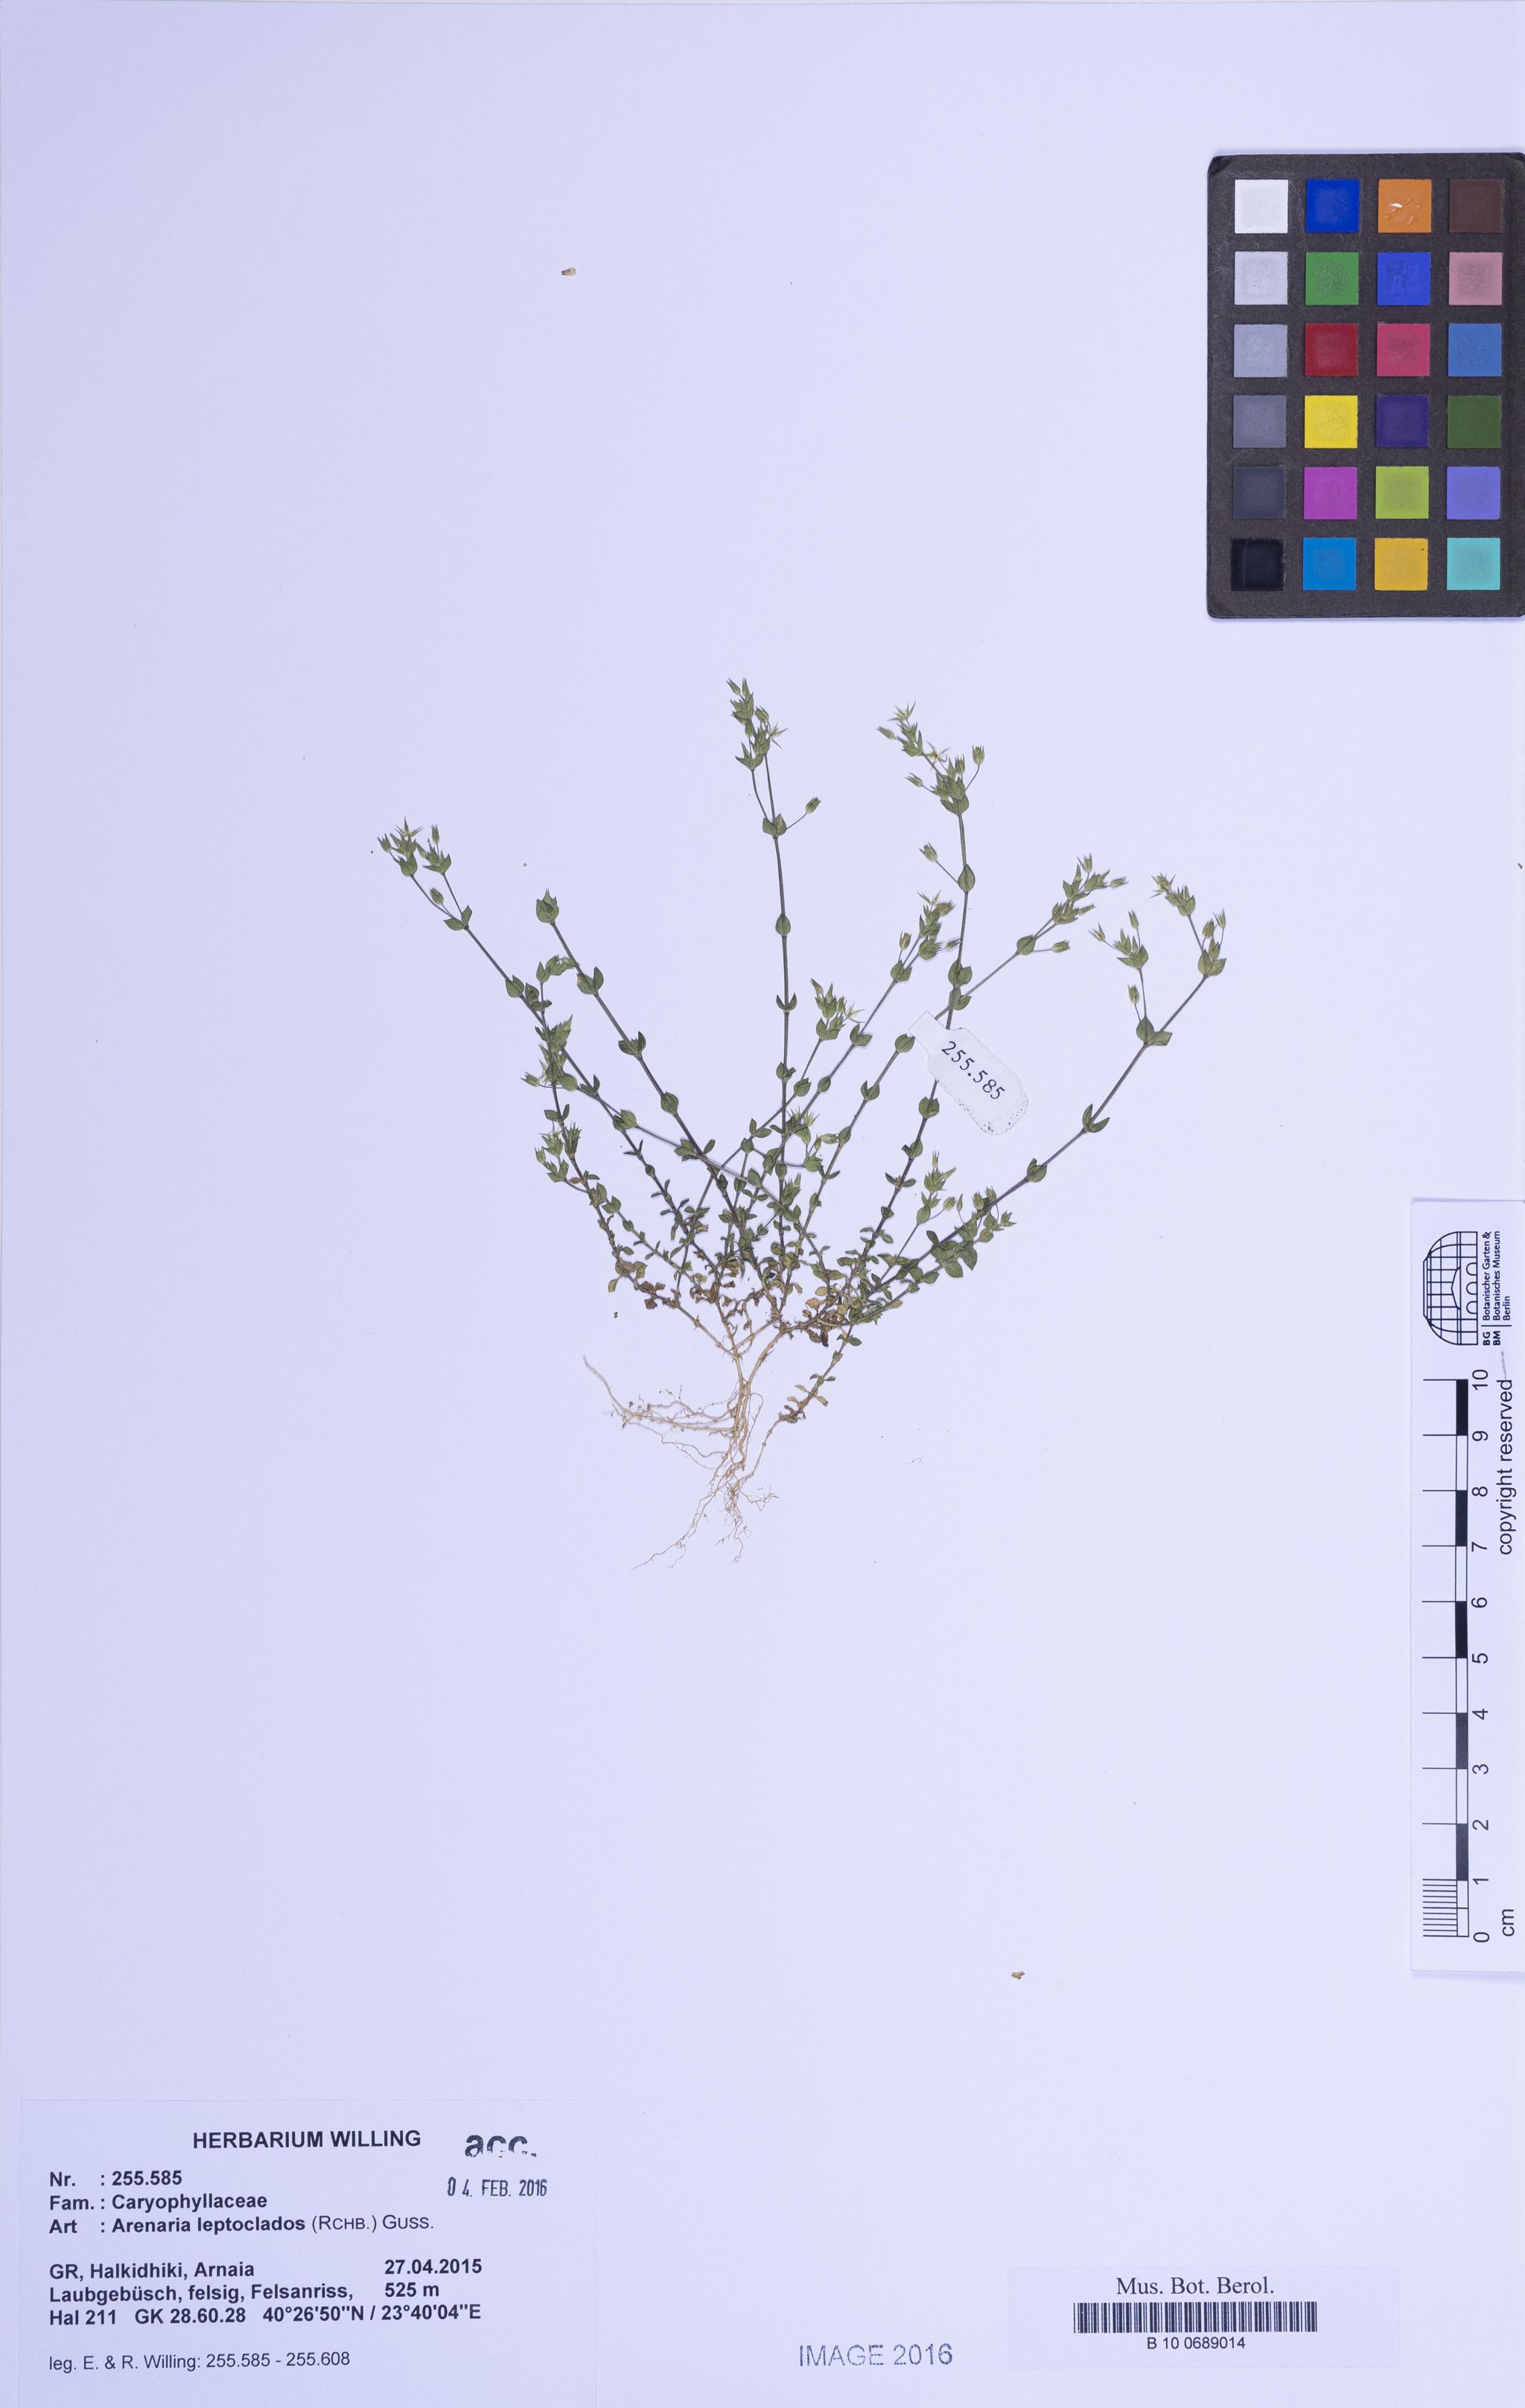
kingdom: Plantae
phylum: Tracheophyta
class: Magnoliopsida
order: Caryophyllales
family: Caryophyllaceae
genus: Arenaria
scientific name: Arenaria leptoclados
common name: Thyme-leaved sandwort
